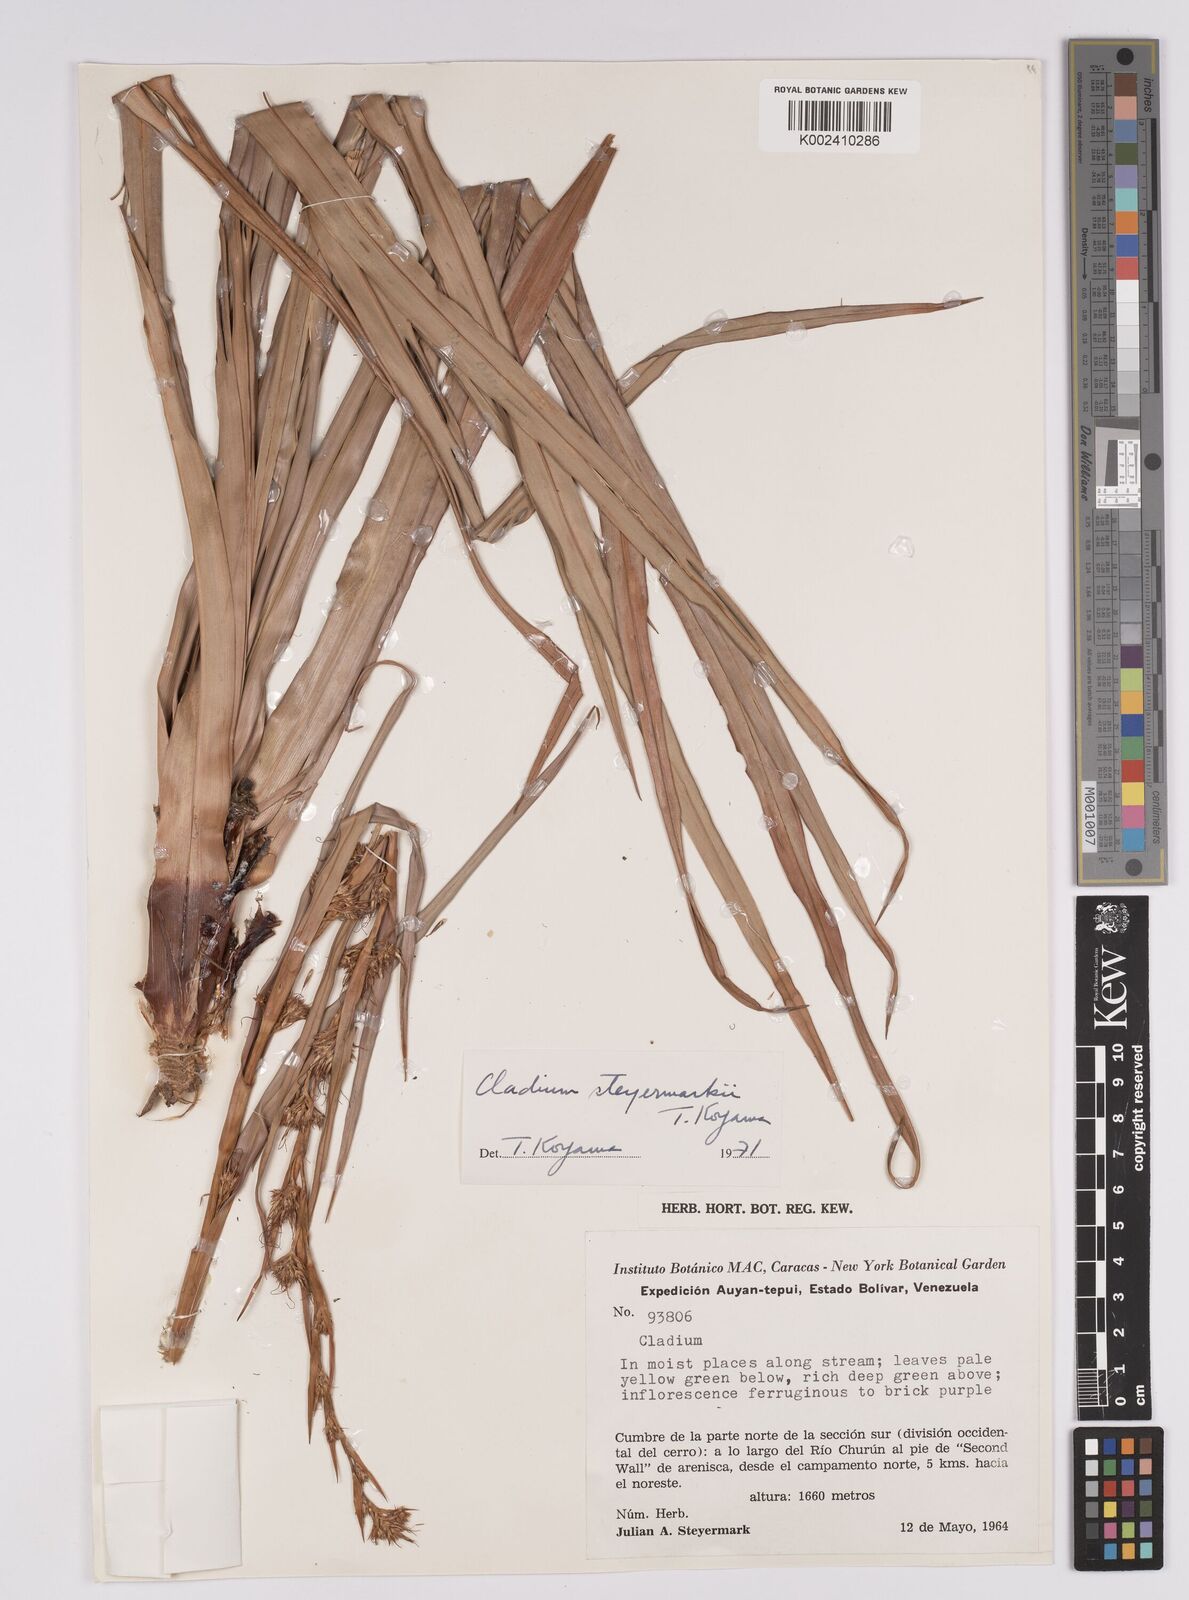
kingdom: Plantae
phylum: Tracheophyta
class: Liliopsida
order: Poales
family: Cyperaceae
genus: Rhynchocladium
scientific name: Rhynchocladium steyermarkii
